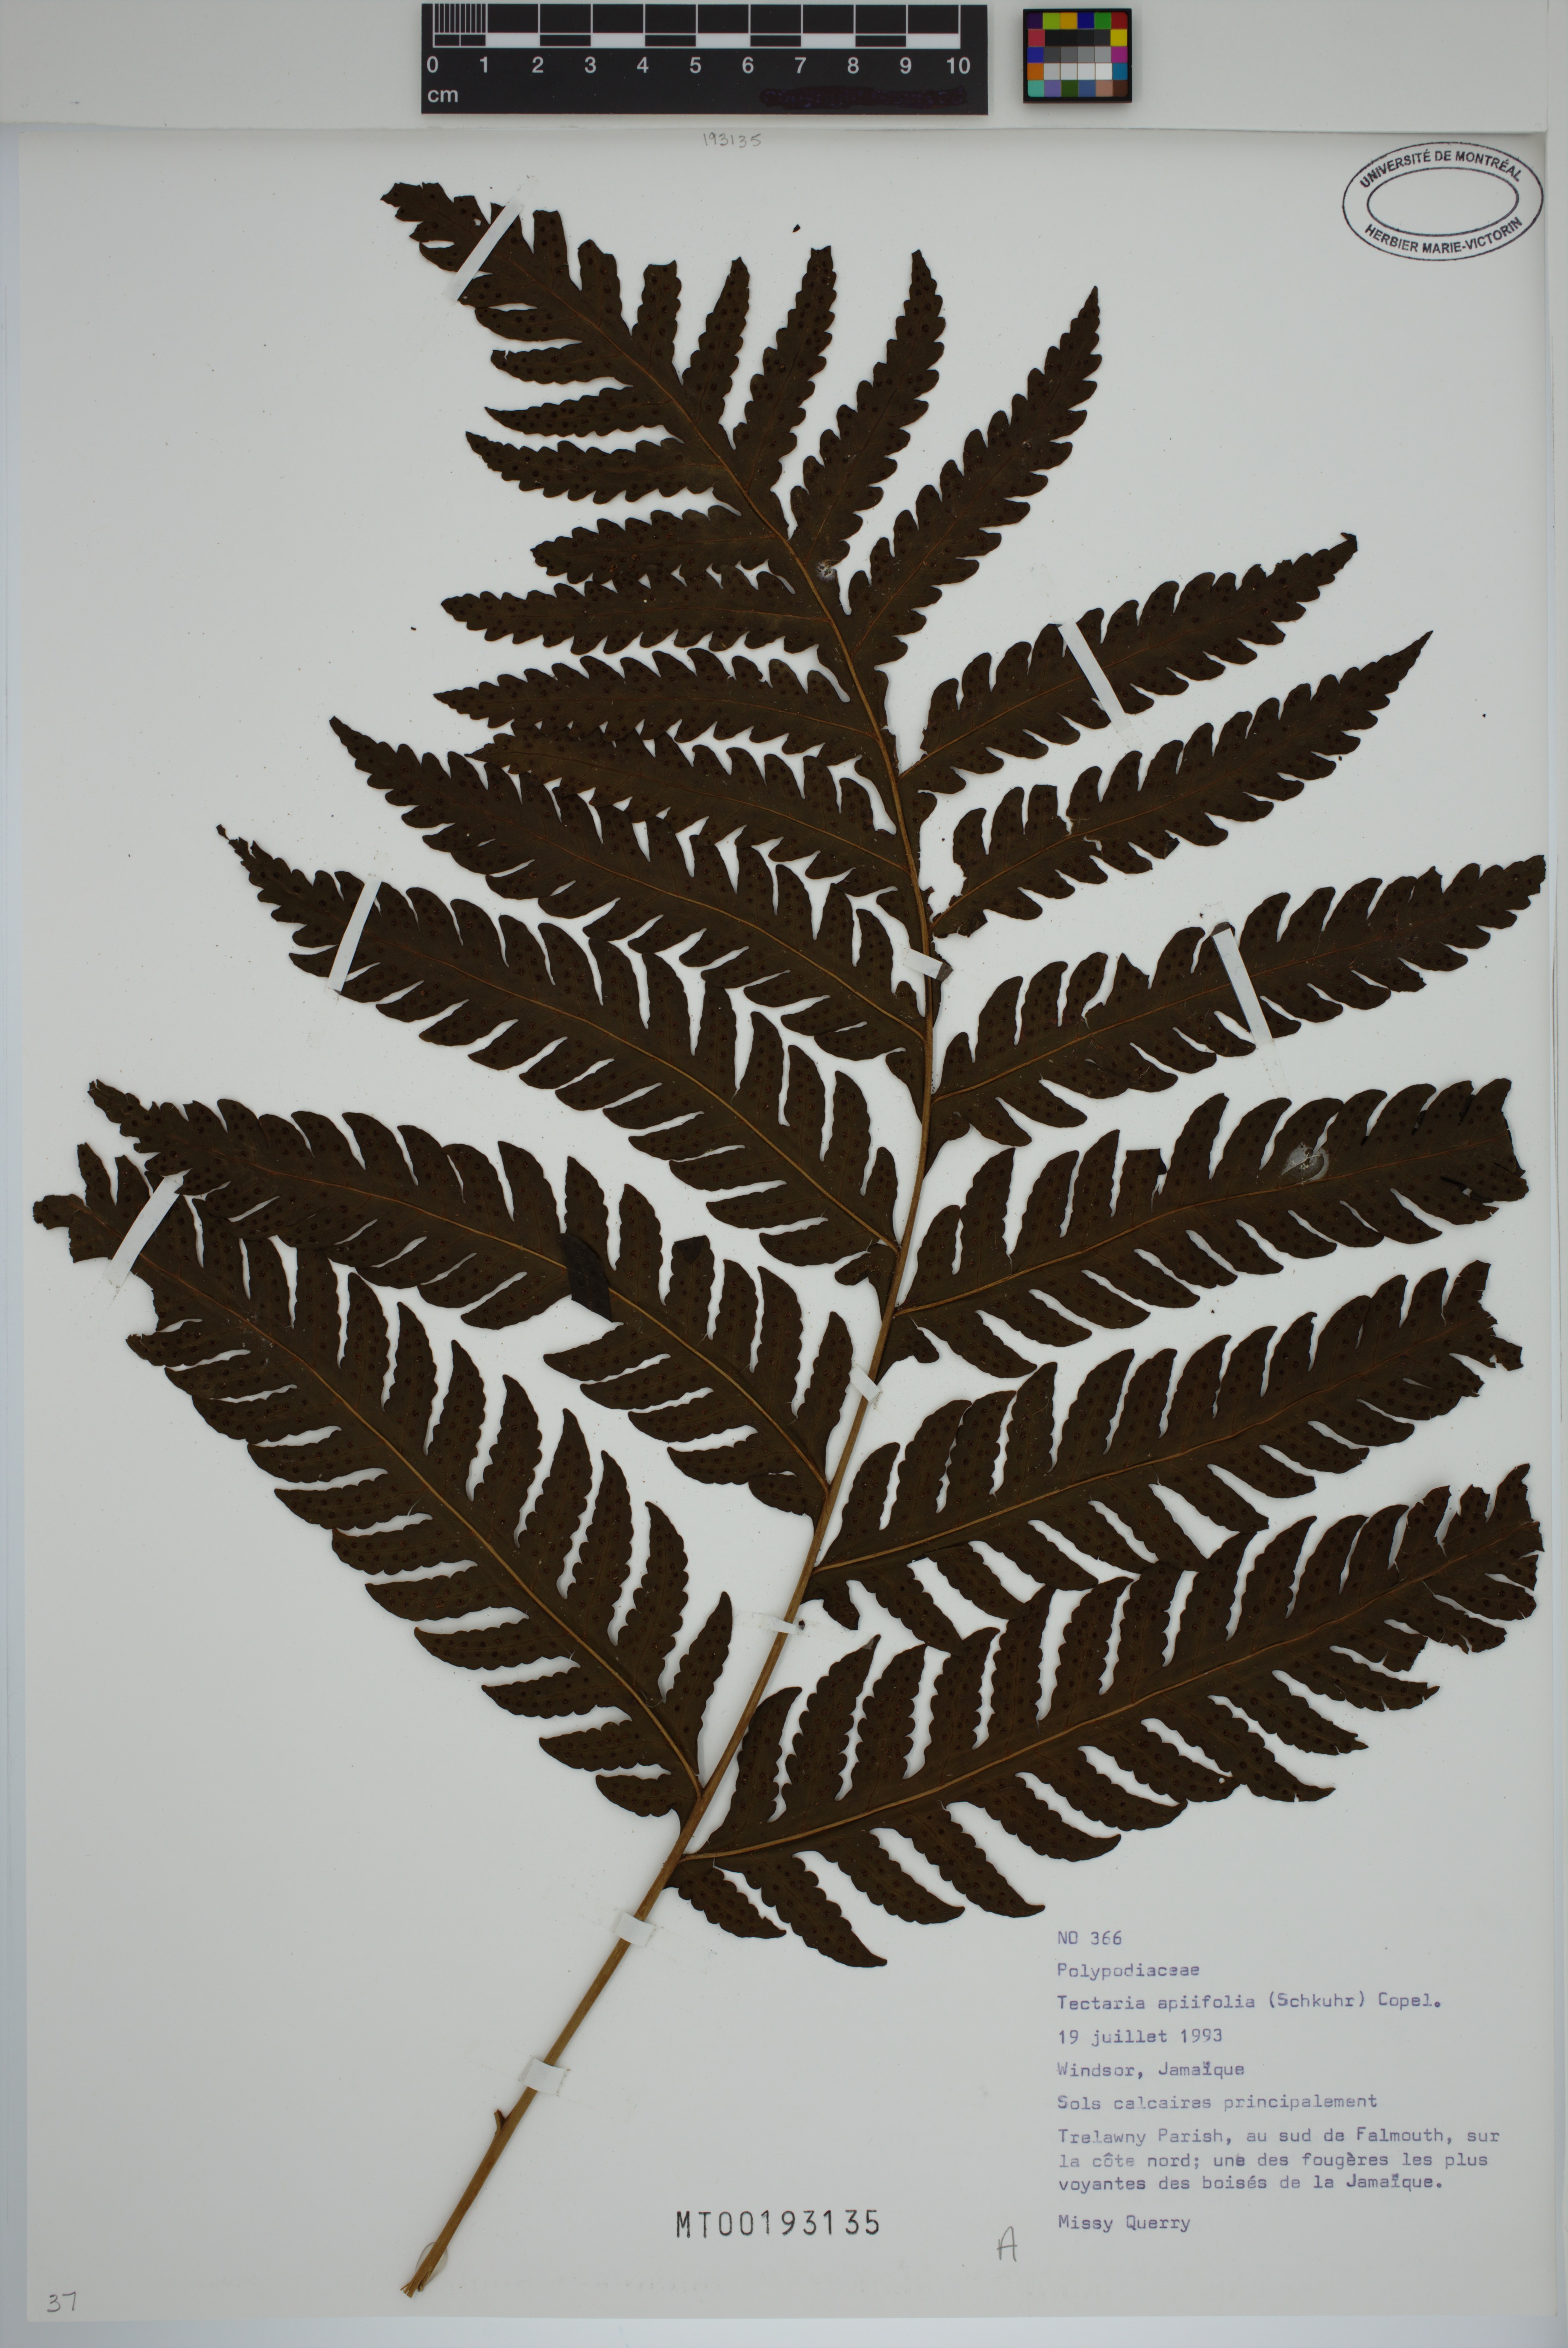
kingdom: Plantae
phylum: Tracheophyta
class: Polypodiopsida
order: Polypodiales
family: Tectariaceae
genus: Tectaria
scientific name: Tectaria coadunata
